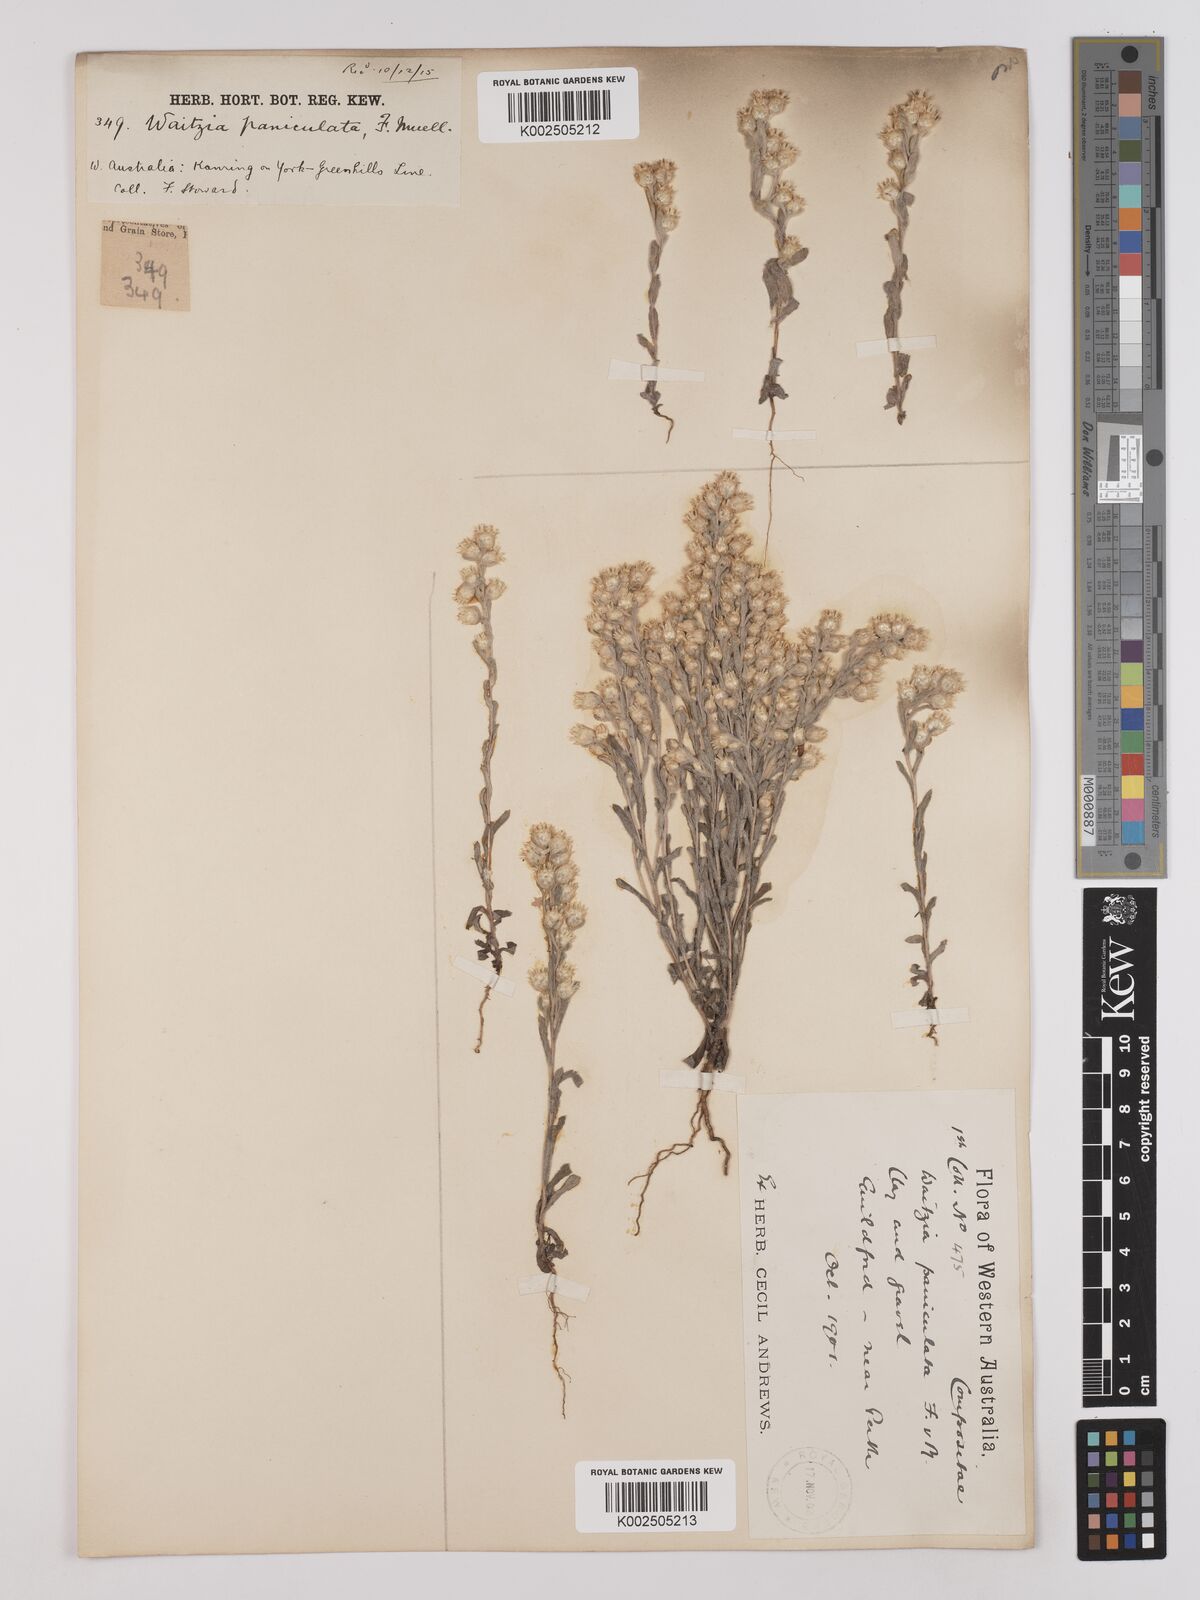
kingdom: Plantae
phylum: Tracheophyta
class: Magnoliopsida
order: Asterales
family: Asteraceae
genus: Pterochaeta
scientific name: Pterochaeta paniculata
